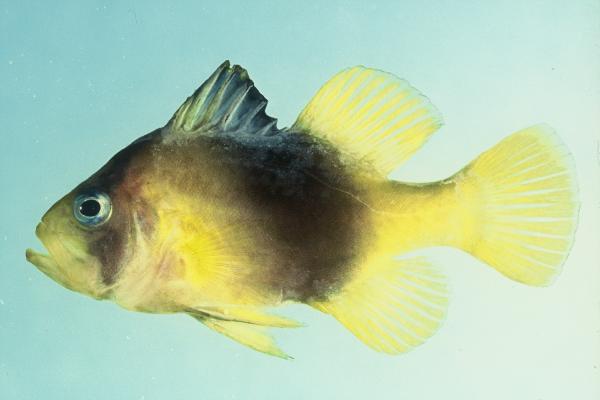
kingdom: Animalia
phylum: Chordata
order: Perciformes
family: Serranidae
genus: Diploprion
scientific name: Diploprion bifasciatum
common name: Barred soapfish
